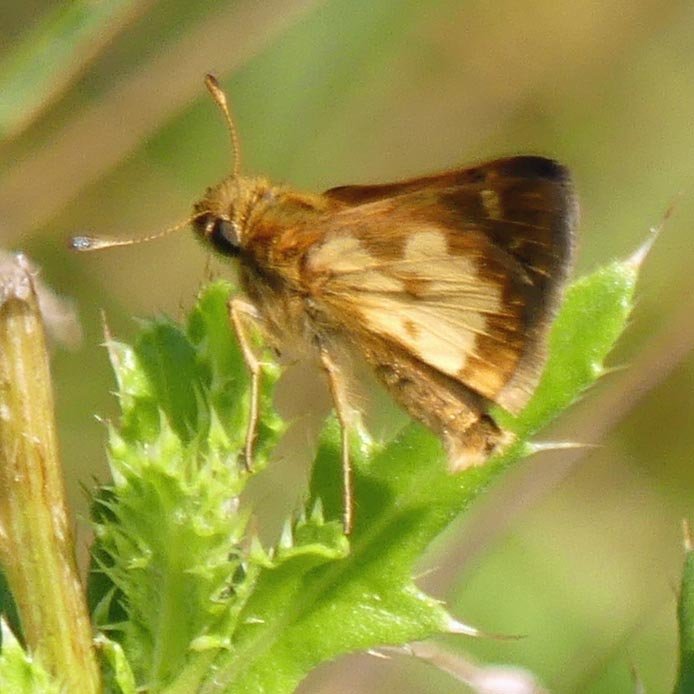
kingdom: Animalia
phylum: Arthropoda
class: Insecta
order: Lepidoptera
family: Hesperiidae
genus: Polites
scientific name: Polites coras
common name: Peck's Skipper
